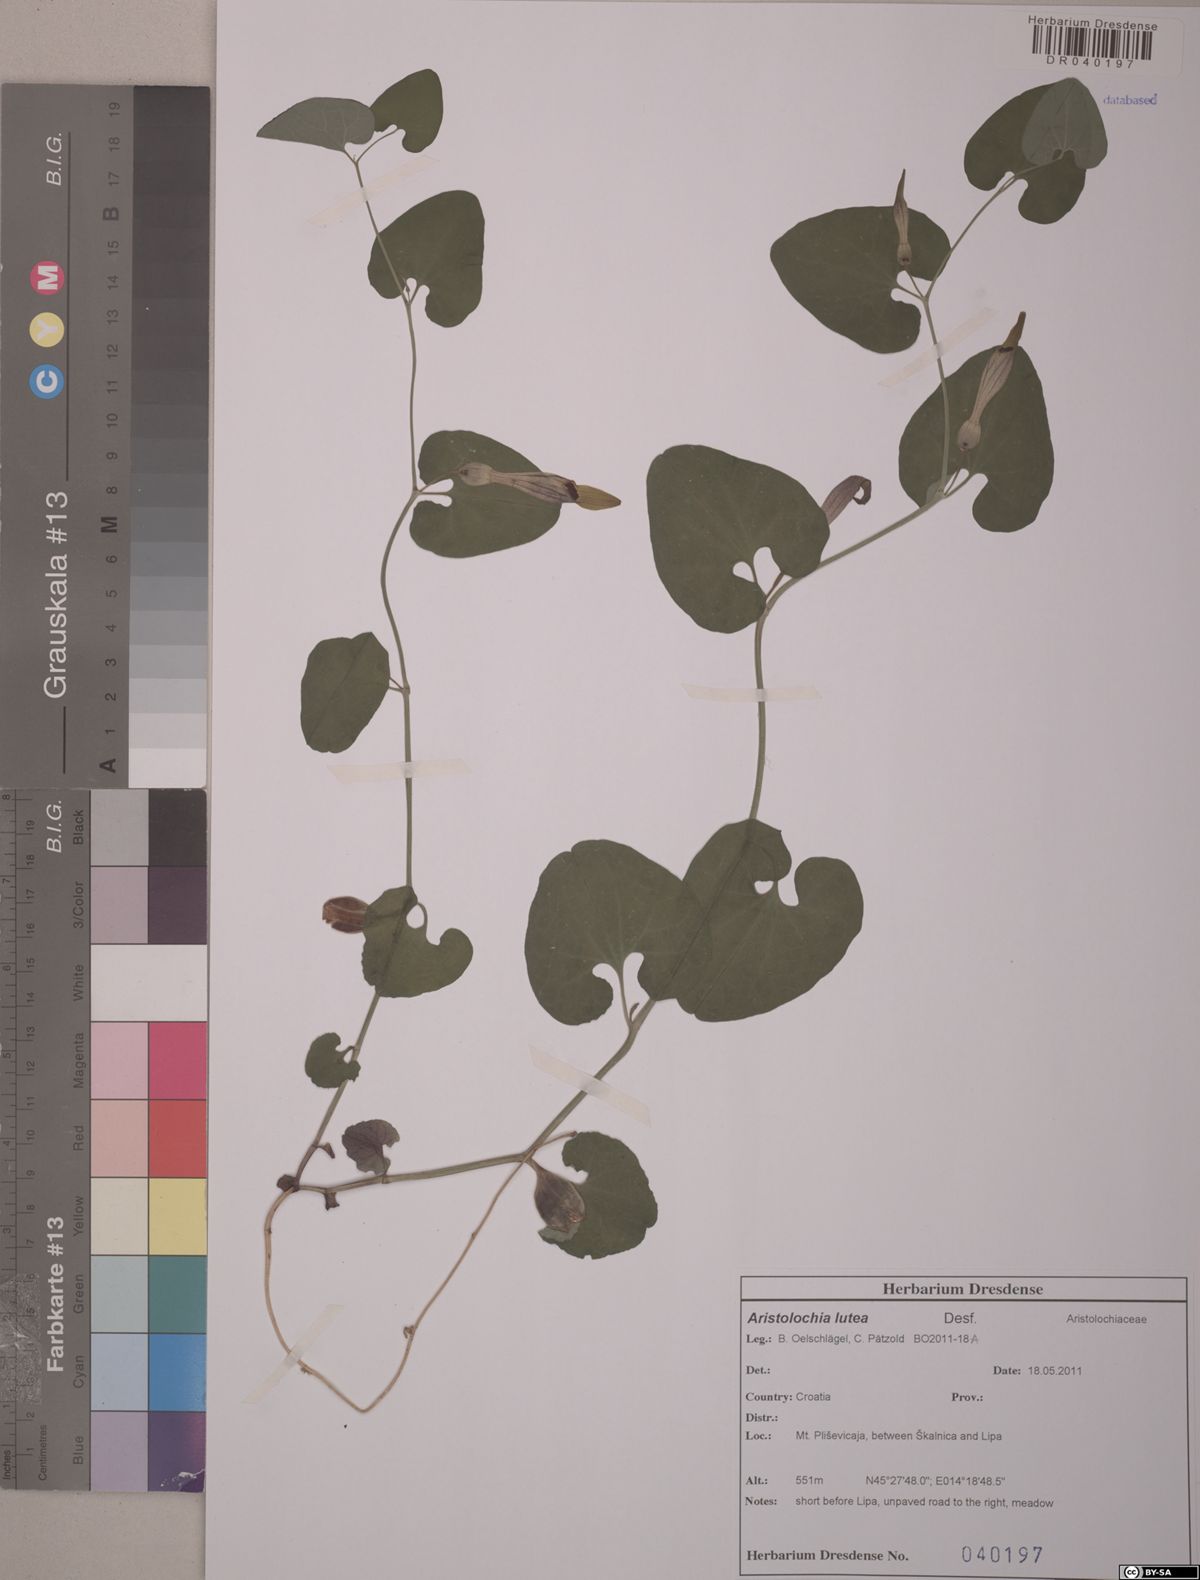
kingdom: Plantae
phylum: Tracheophyta
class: Magnoliopsida
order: Piperales
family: Aristolochiaceae
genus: Aristolochia
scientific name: Aristolochia lutea
